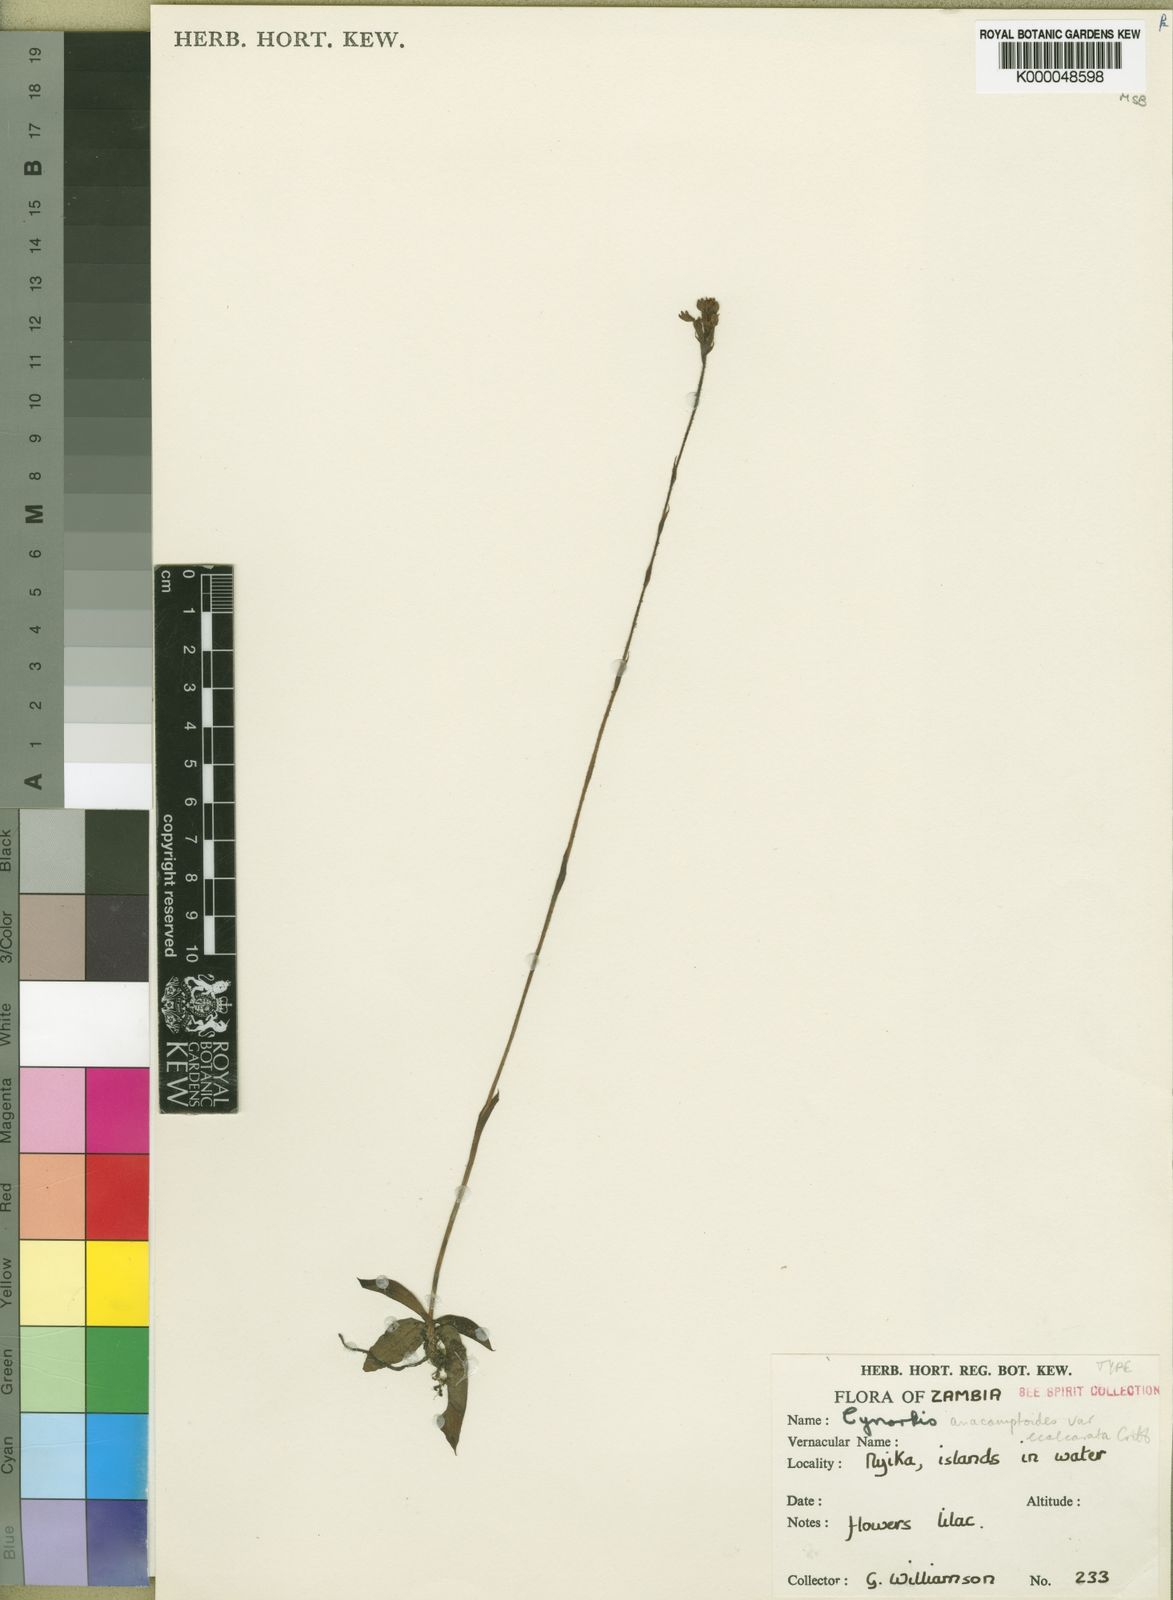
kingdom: Plantae
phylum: Tracheophyta
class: Liliopsida
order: Asparagales
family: Orchidaceae
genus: Cynorkis
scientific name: Cynorkis
